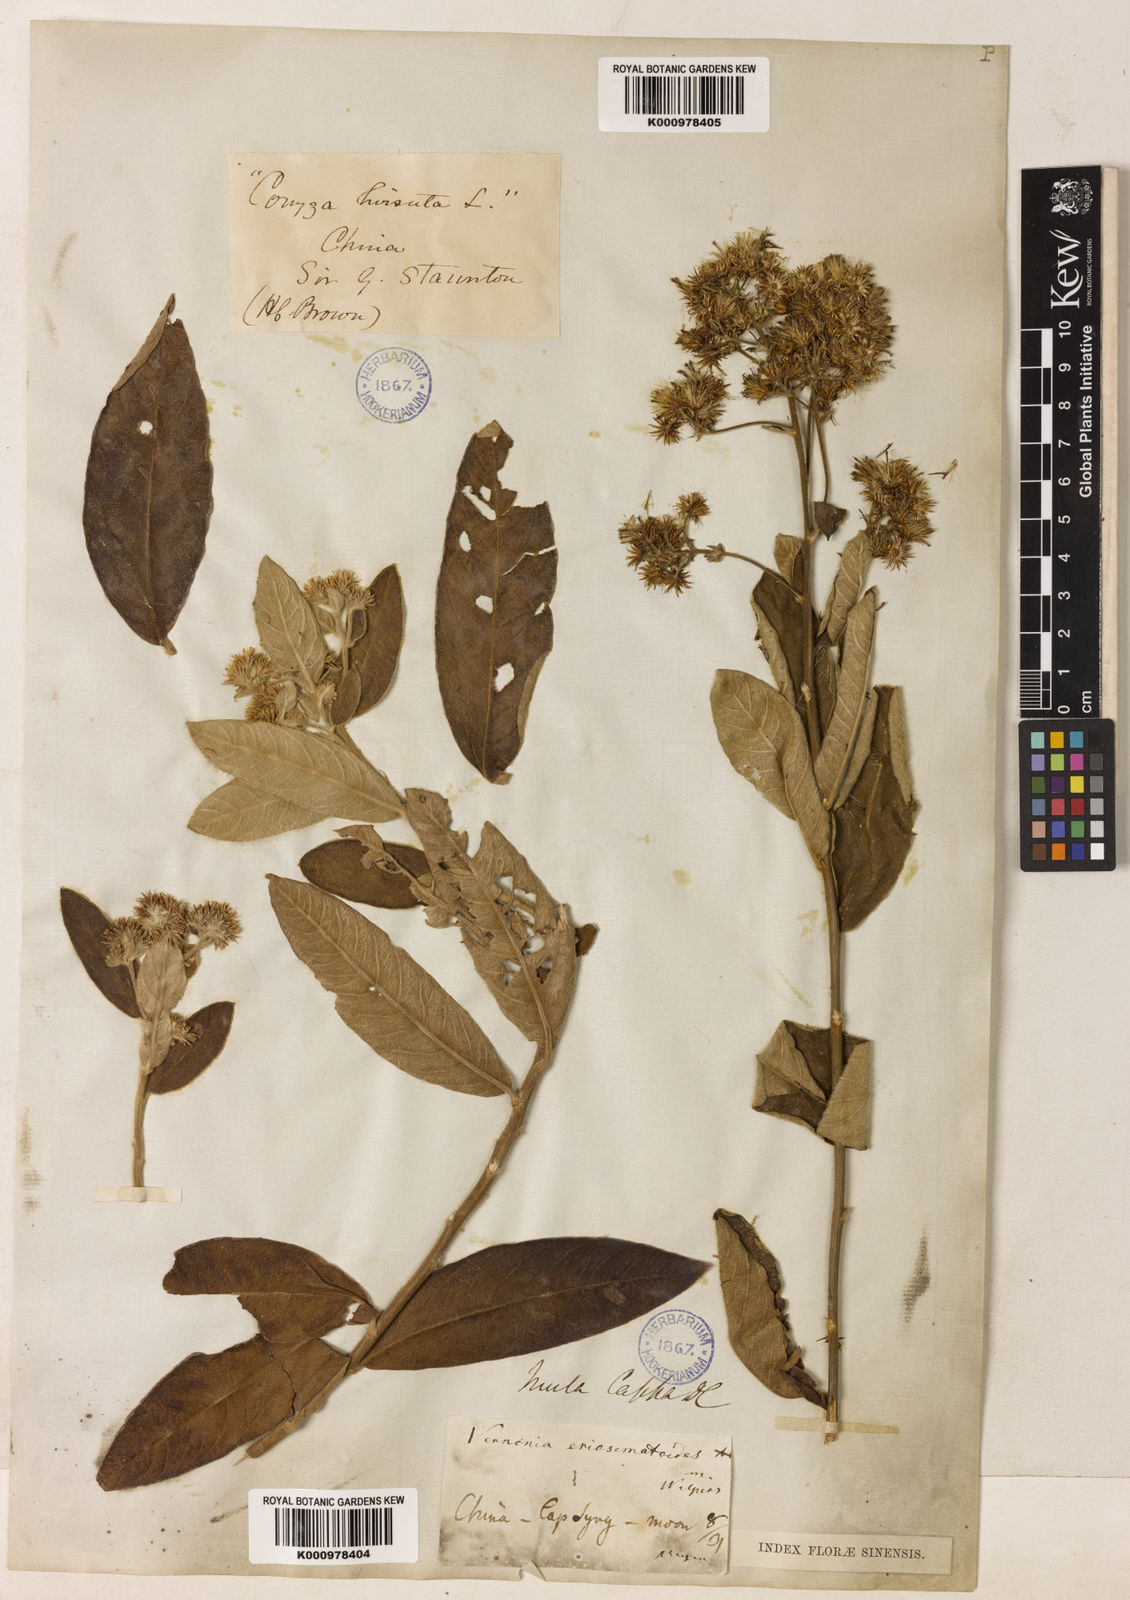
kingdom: Plantae
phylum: Tracheophyta
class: Magnoliopsida
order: Asterales
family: Asteraceae
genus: Duhaldea
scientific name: Duhaldea cappa
